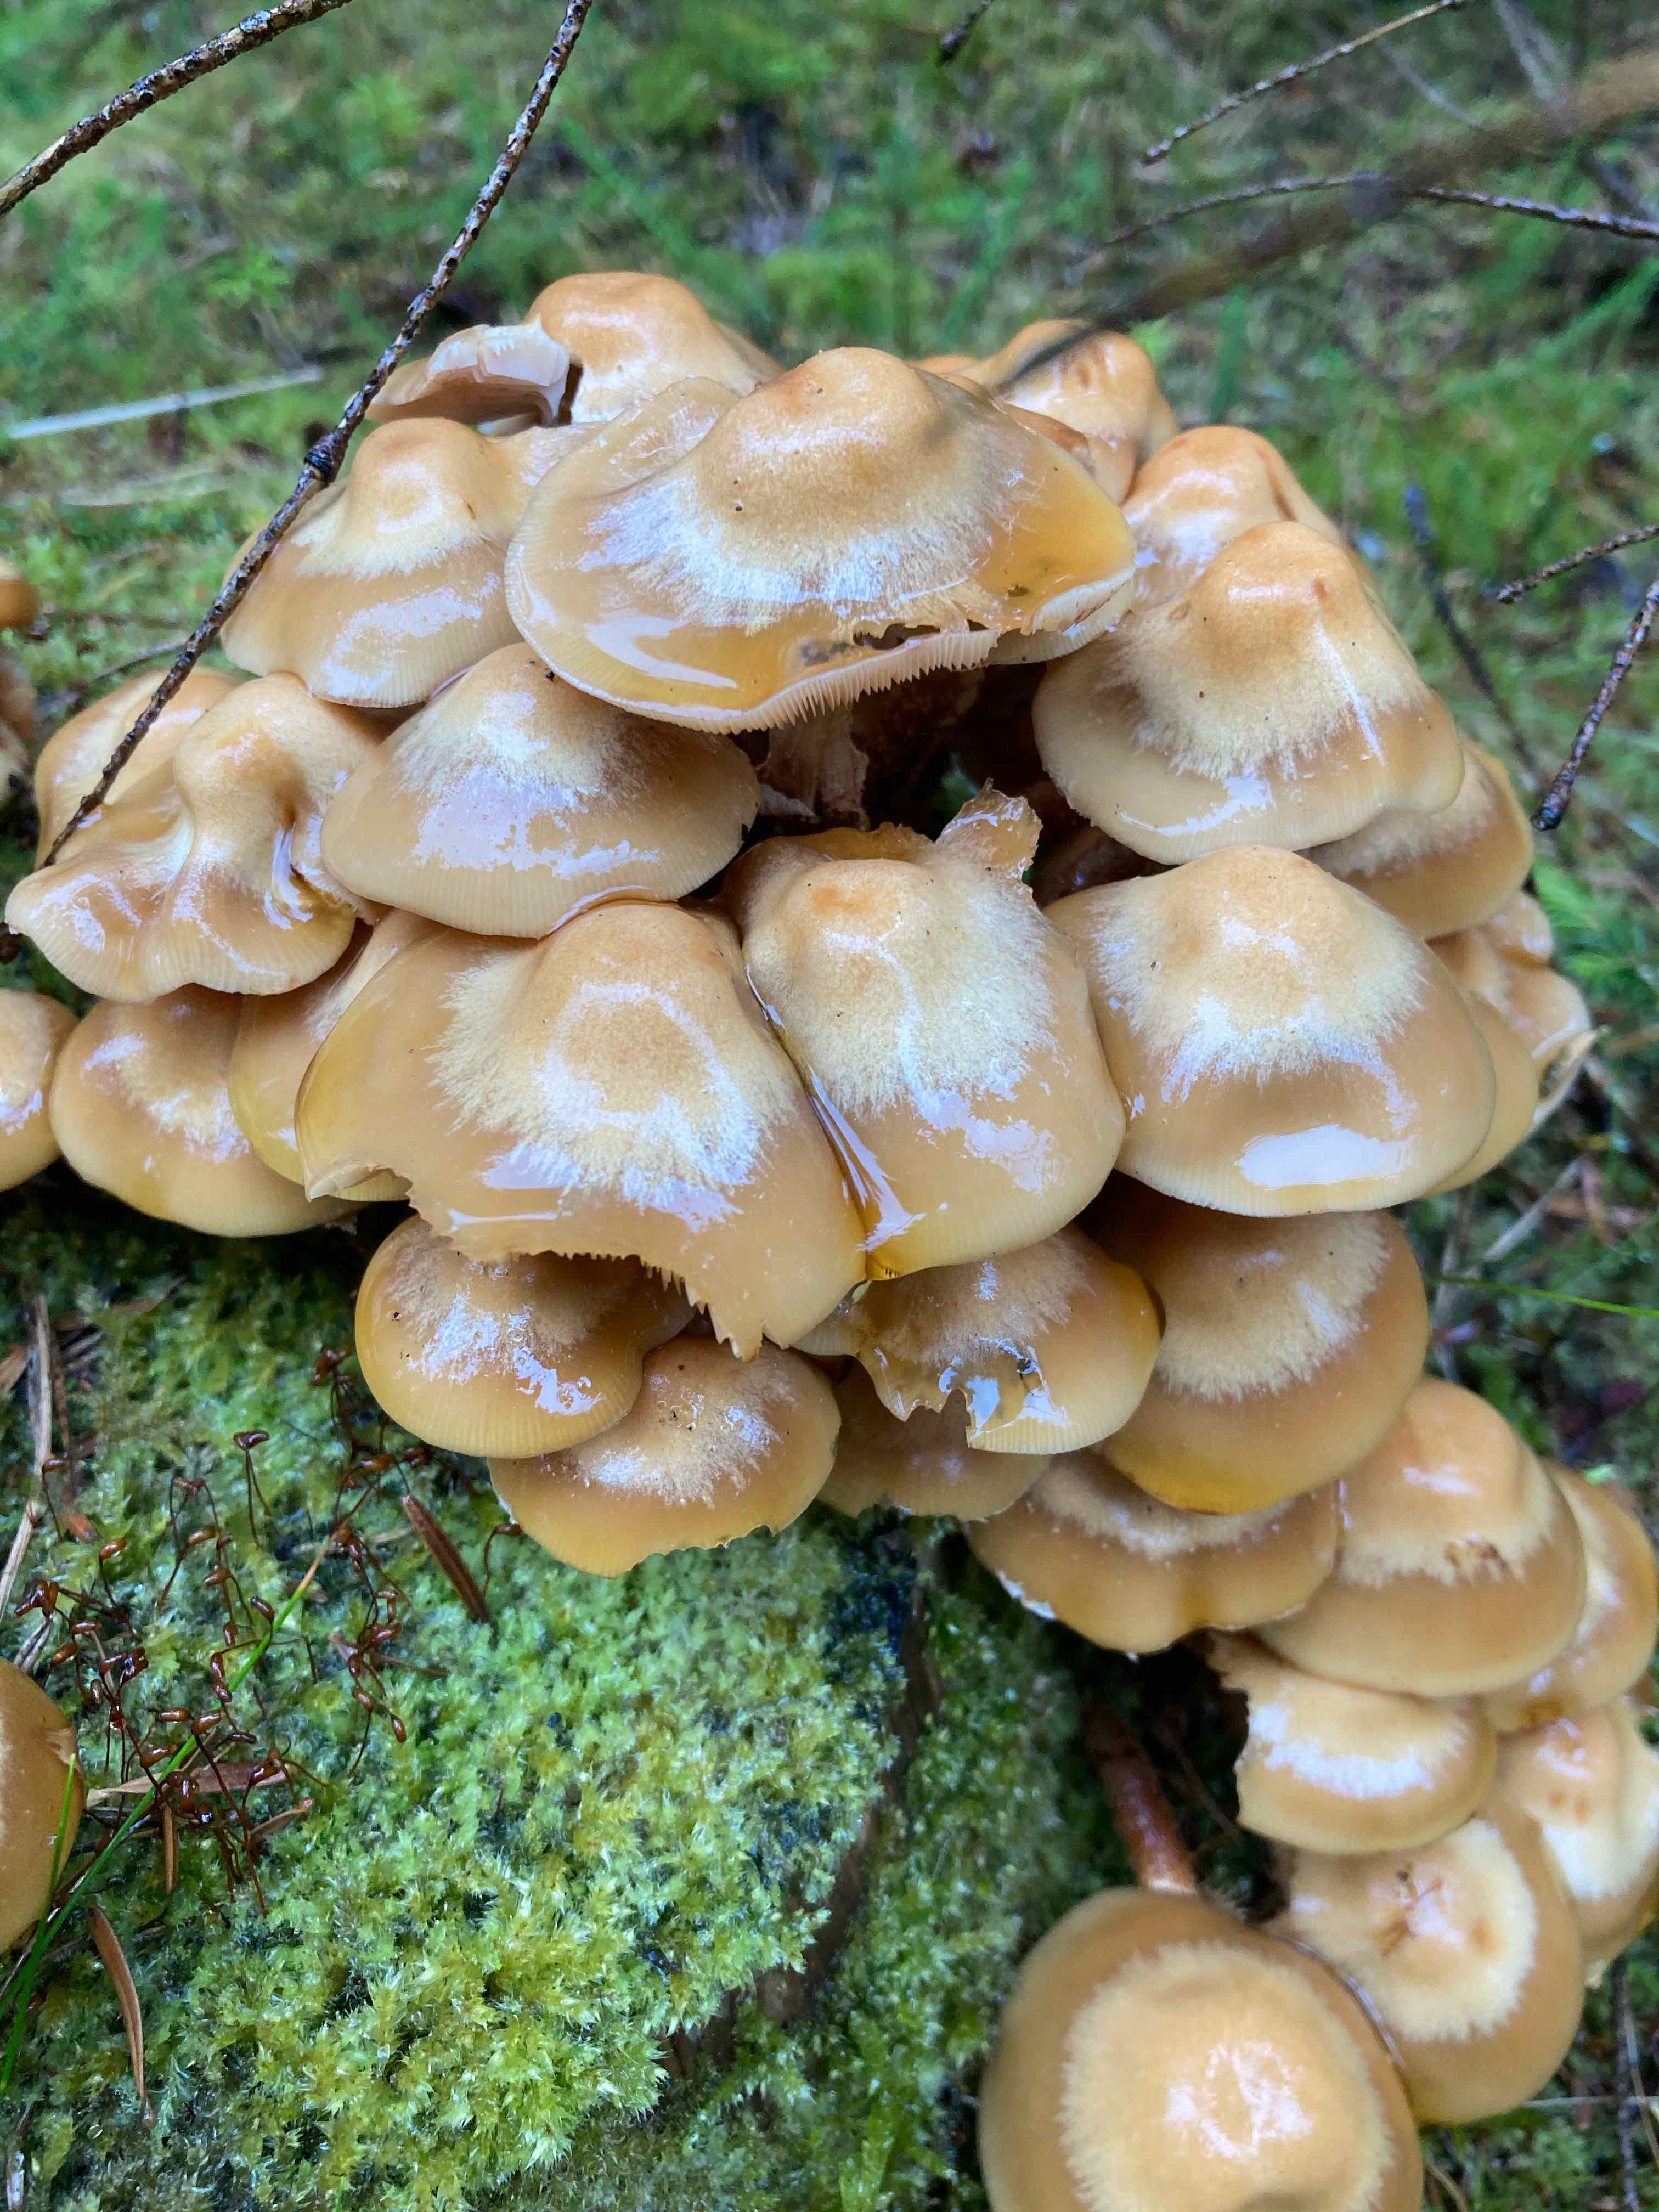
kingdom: Fungi
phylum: Basidiomycota
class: Agaricomycetes
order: Agaricales
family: Strophariaceae
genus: Kuehneromyces
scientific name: Kuehneromyces mutabilis
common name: foranderlig skælhat
